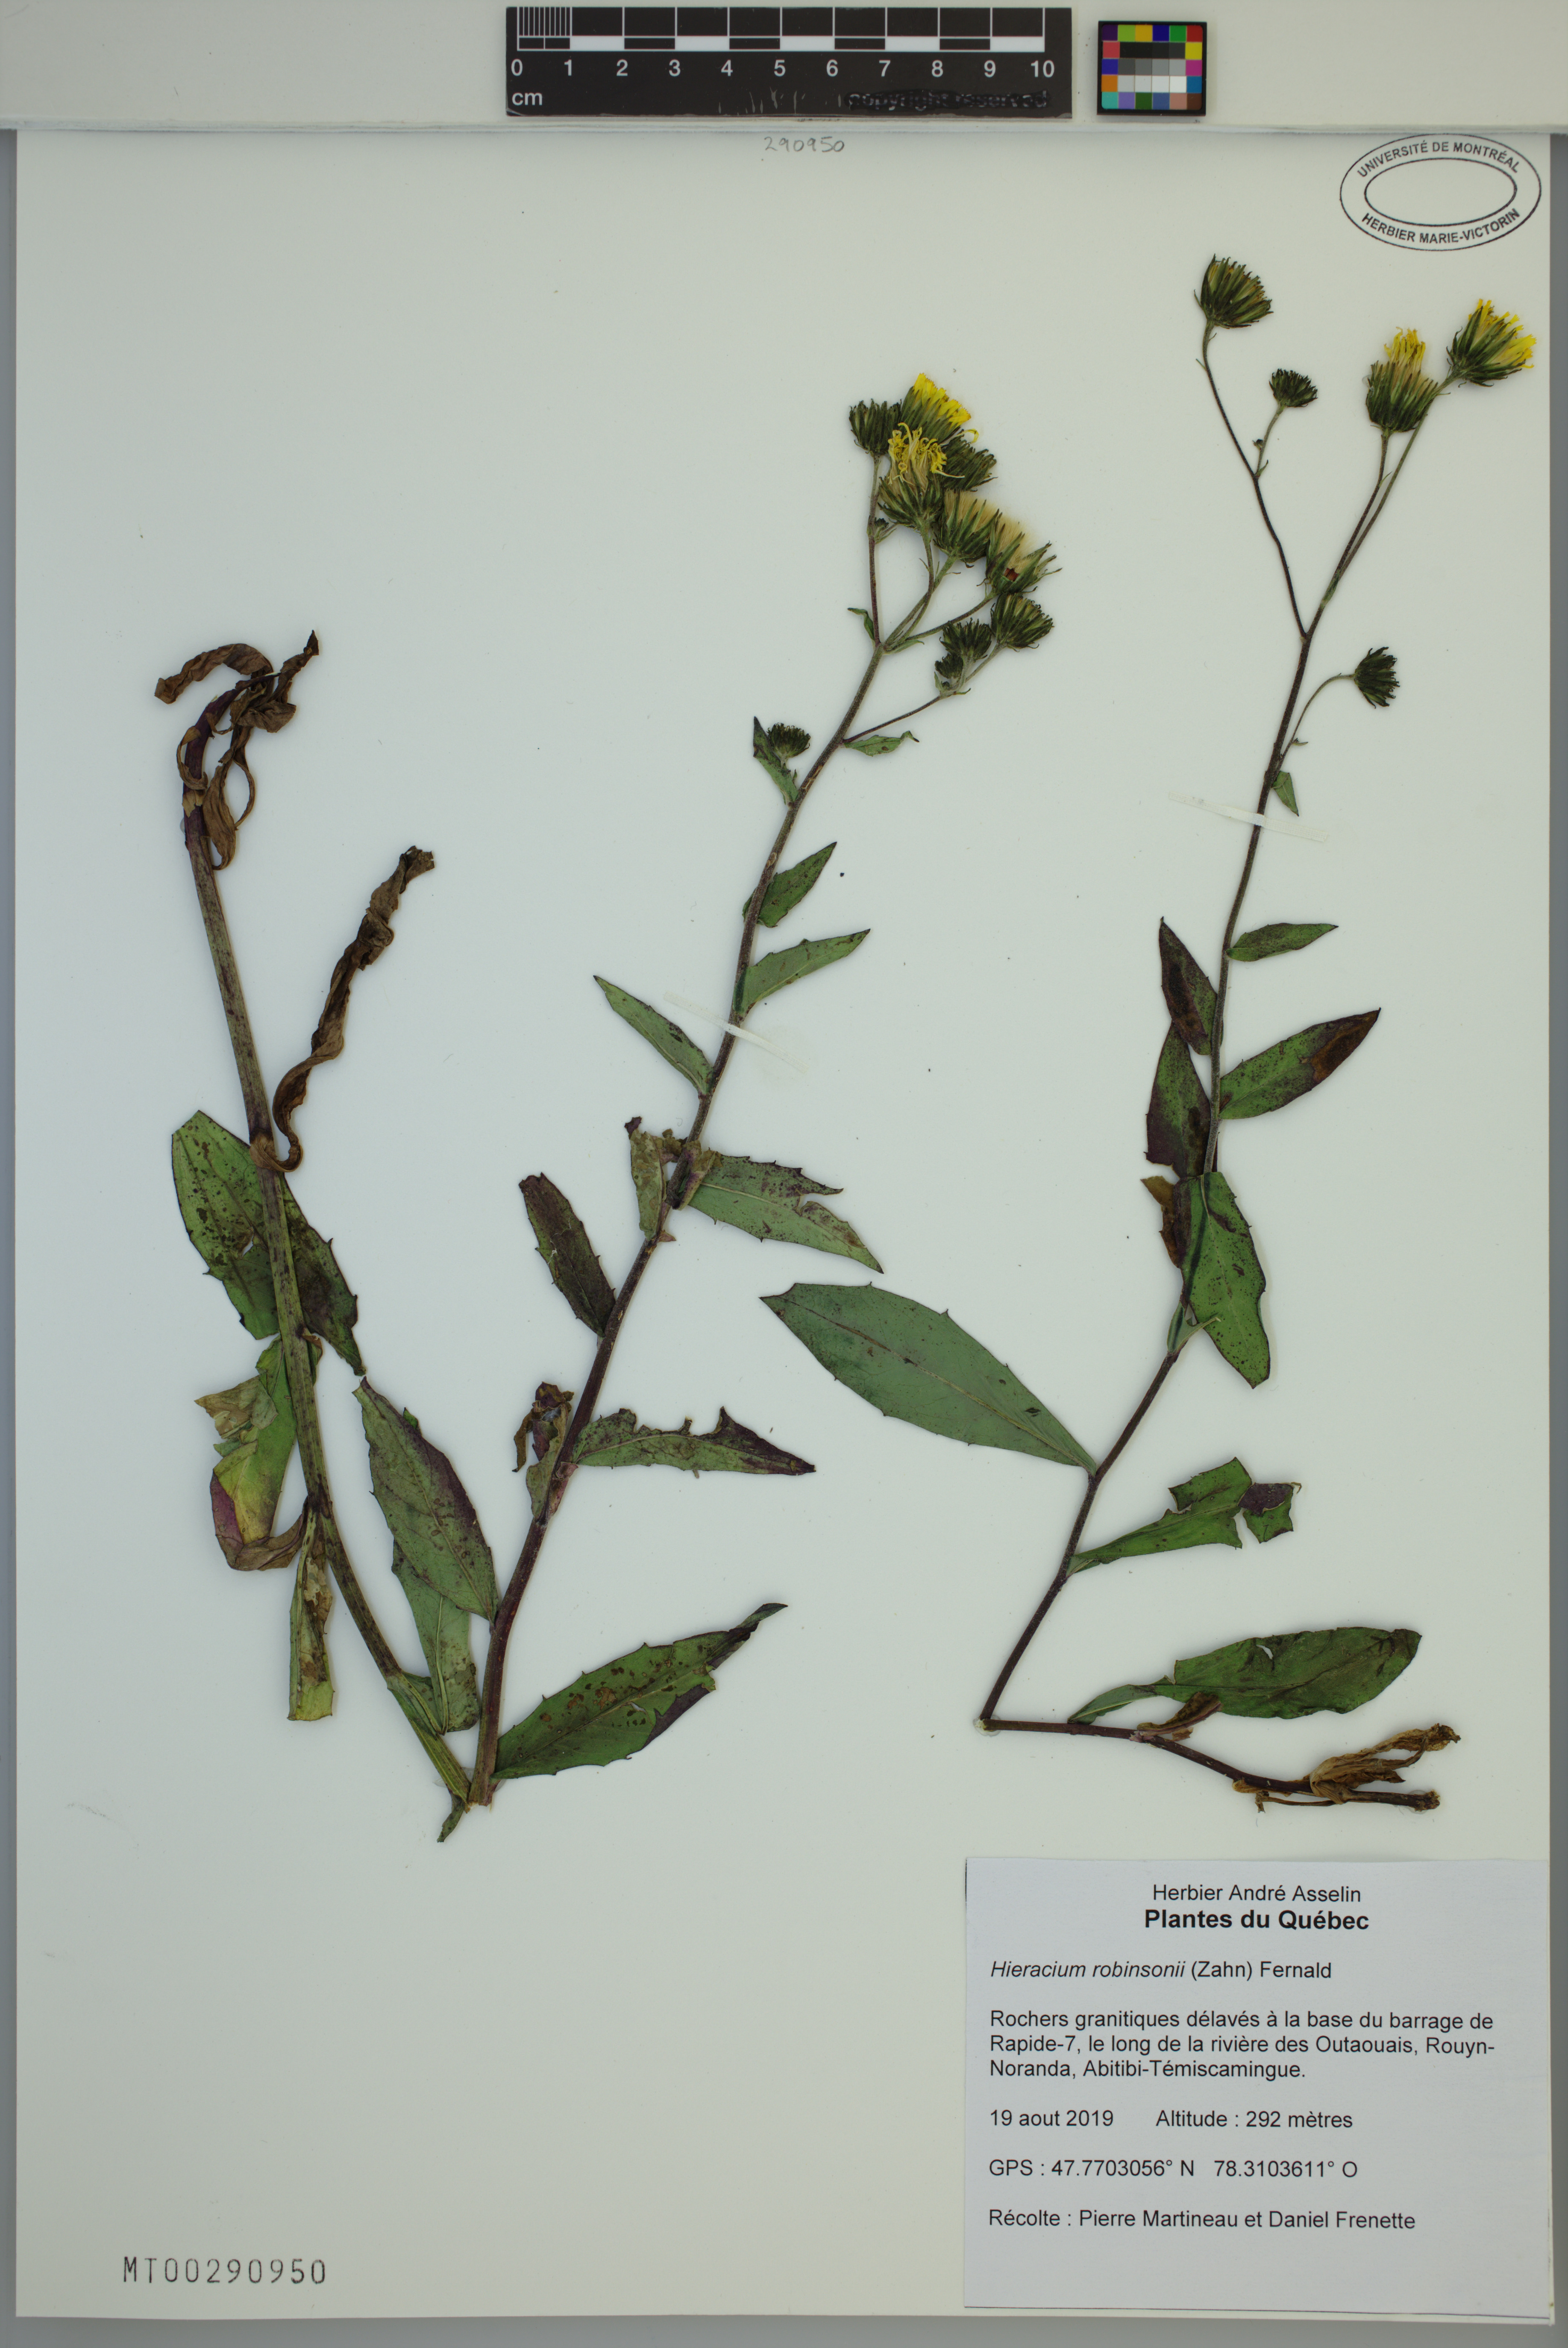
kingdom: Plantae
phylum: Tracheophyta
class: Magnoliopsida
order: Asterales
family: Asteraceae
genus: Hieracium
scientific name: Hieracium robinsonii
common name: Robinson's hawkweed
